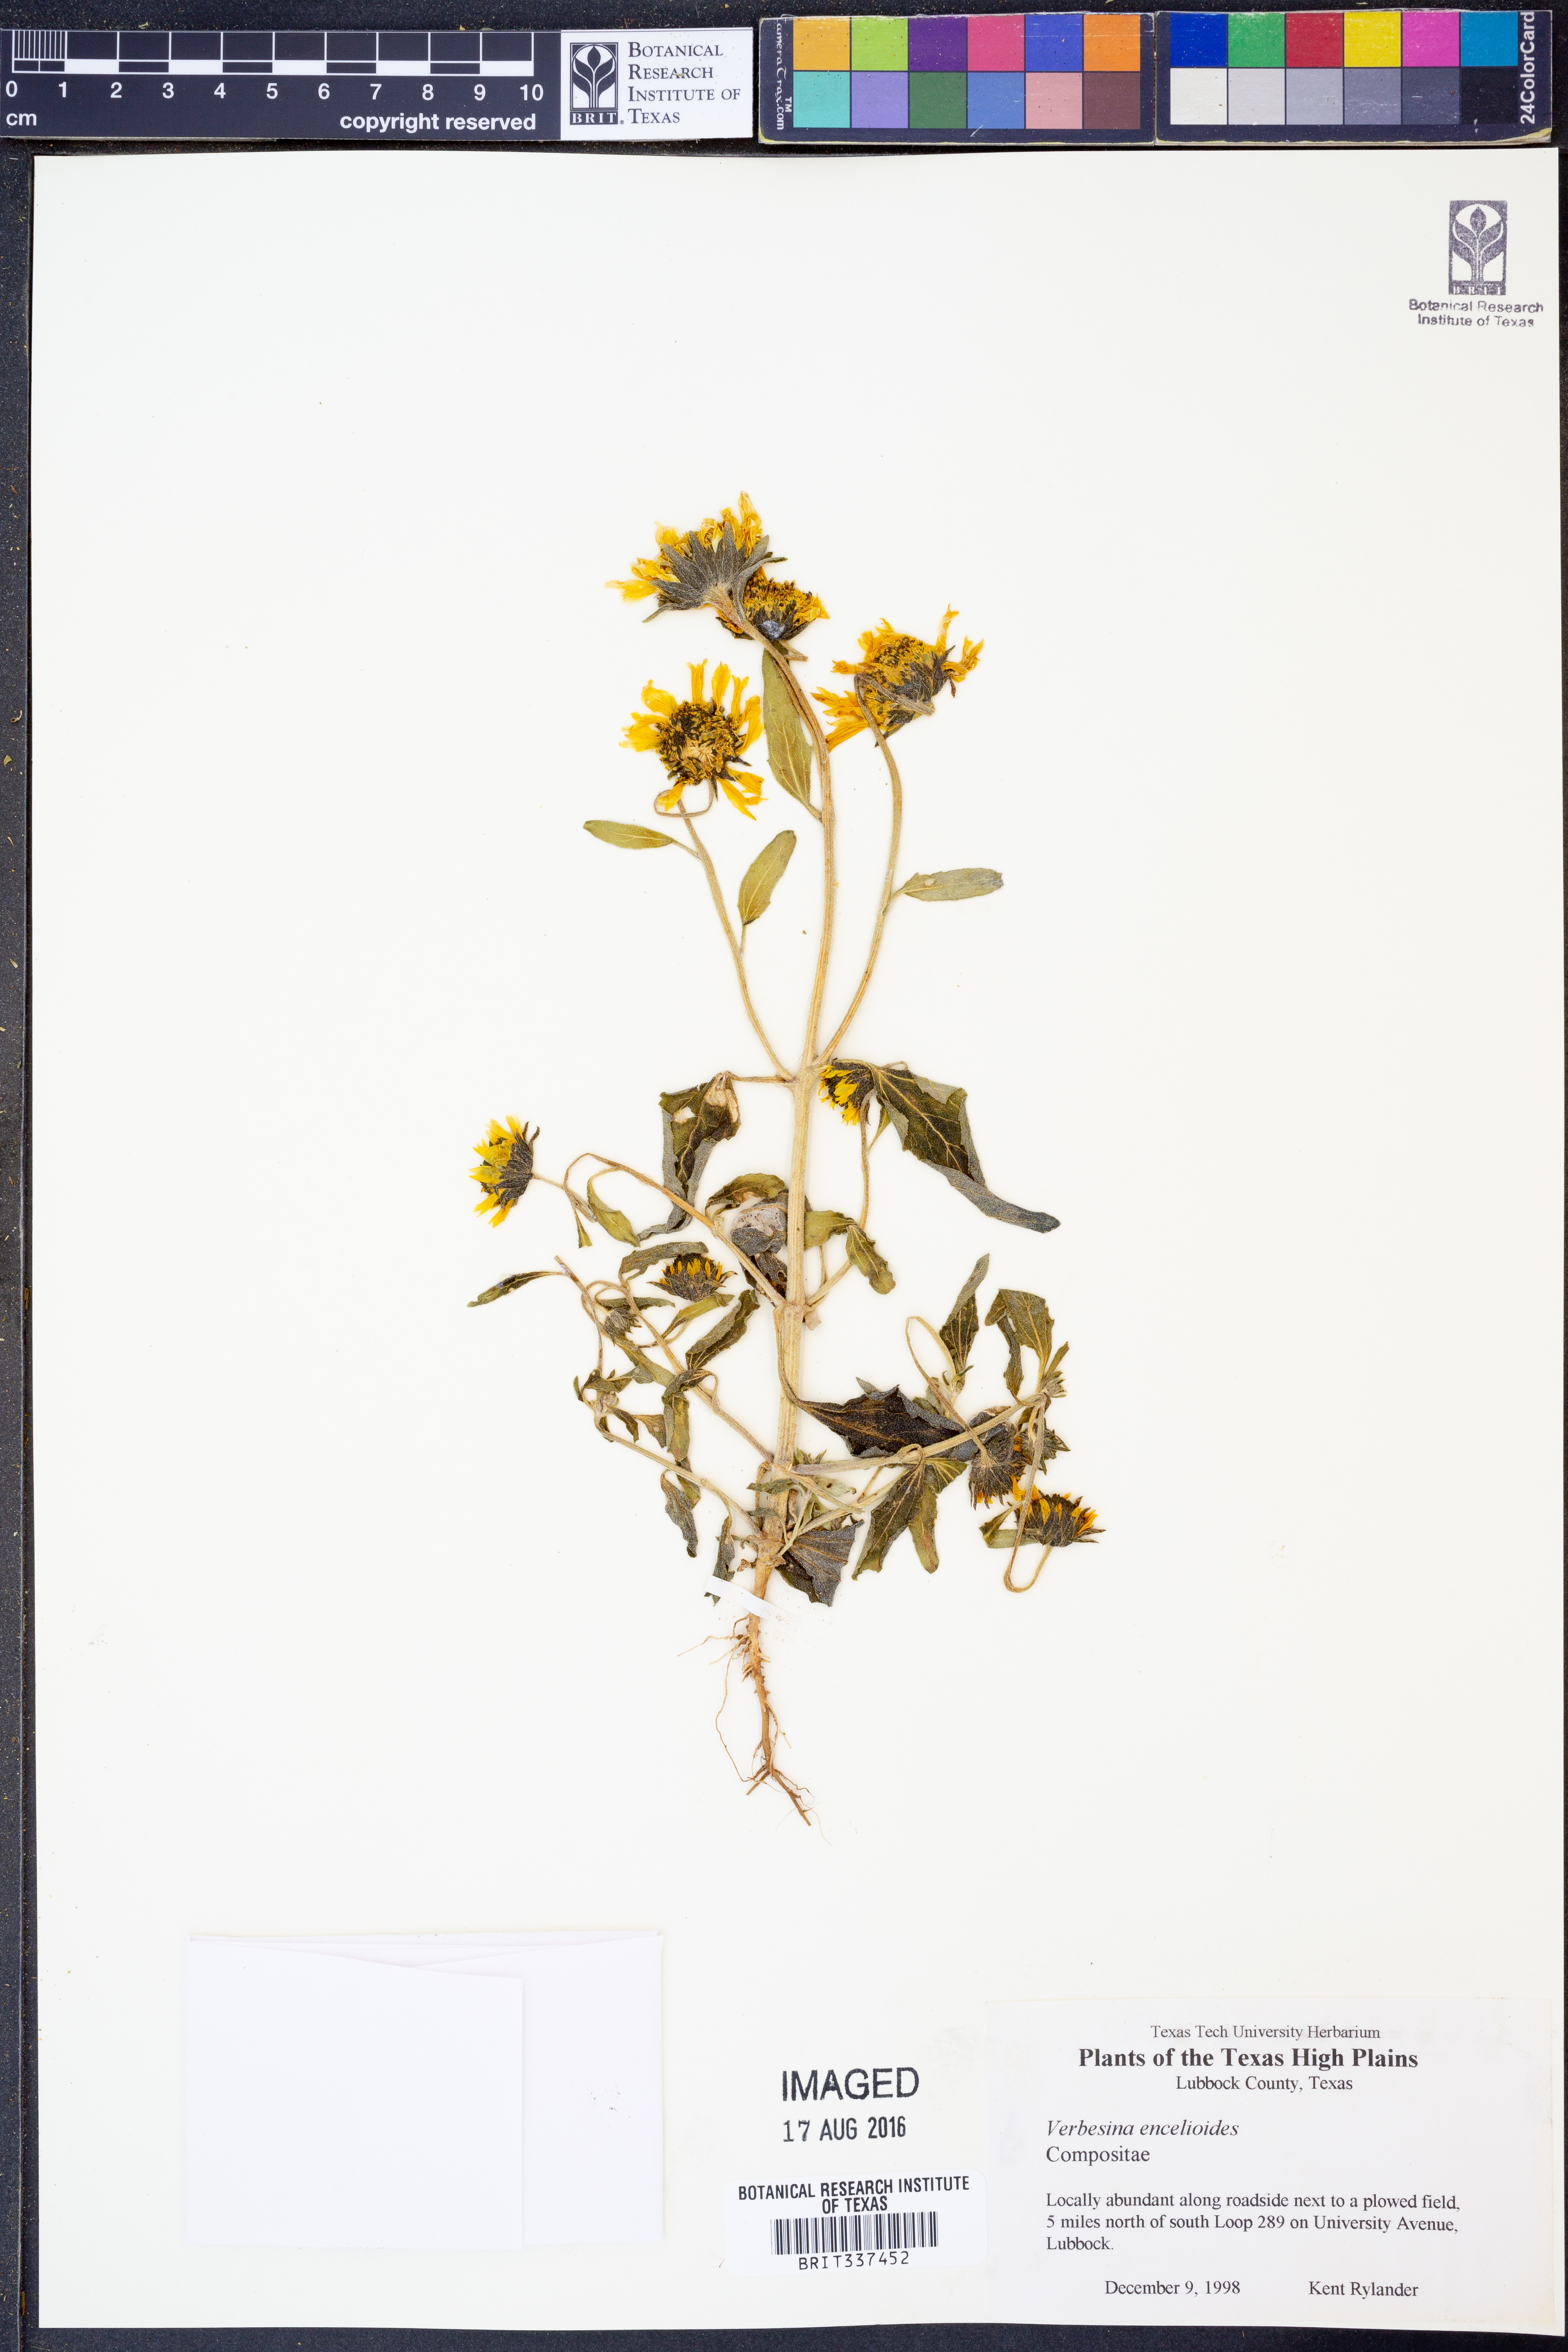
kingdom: Plantae
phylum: Tracheophyta
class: Magnoliopsida
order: Asterales
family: Asteraceae
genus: Verbesina
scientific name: Verbesina encelioides
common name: Golden crownbeard
